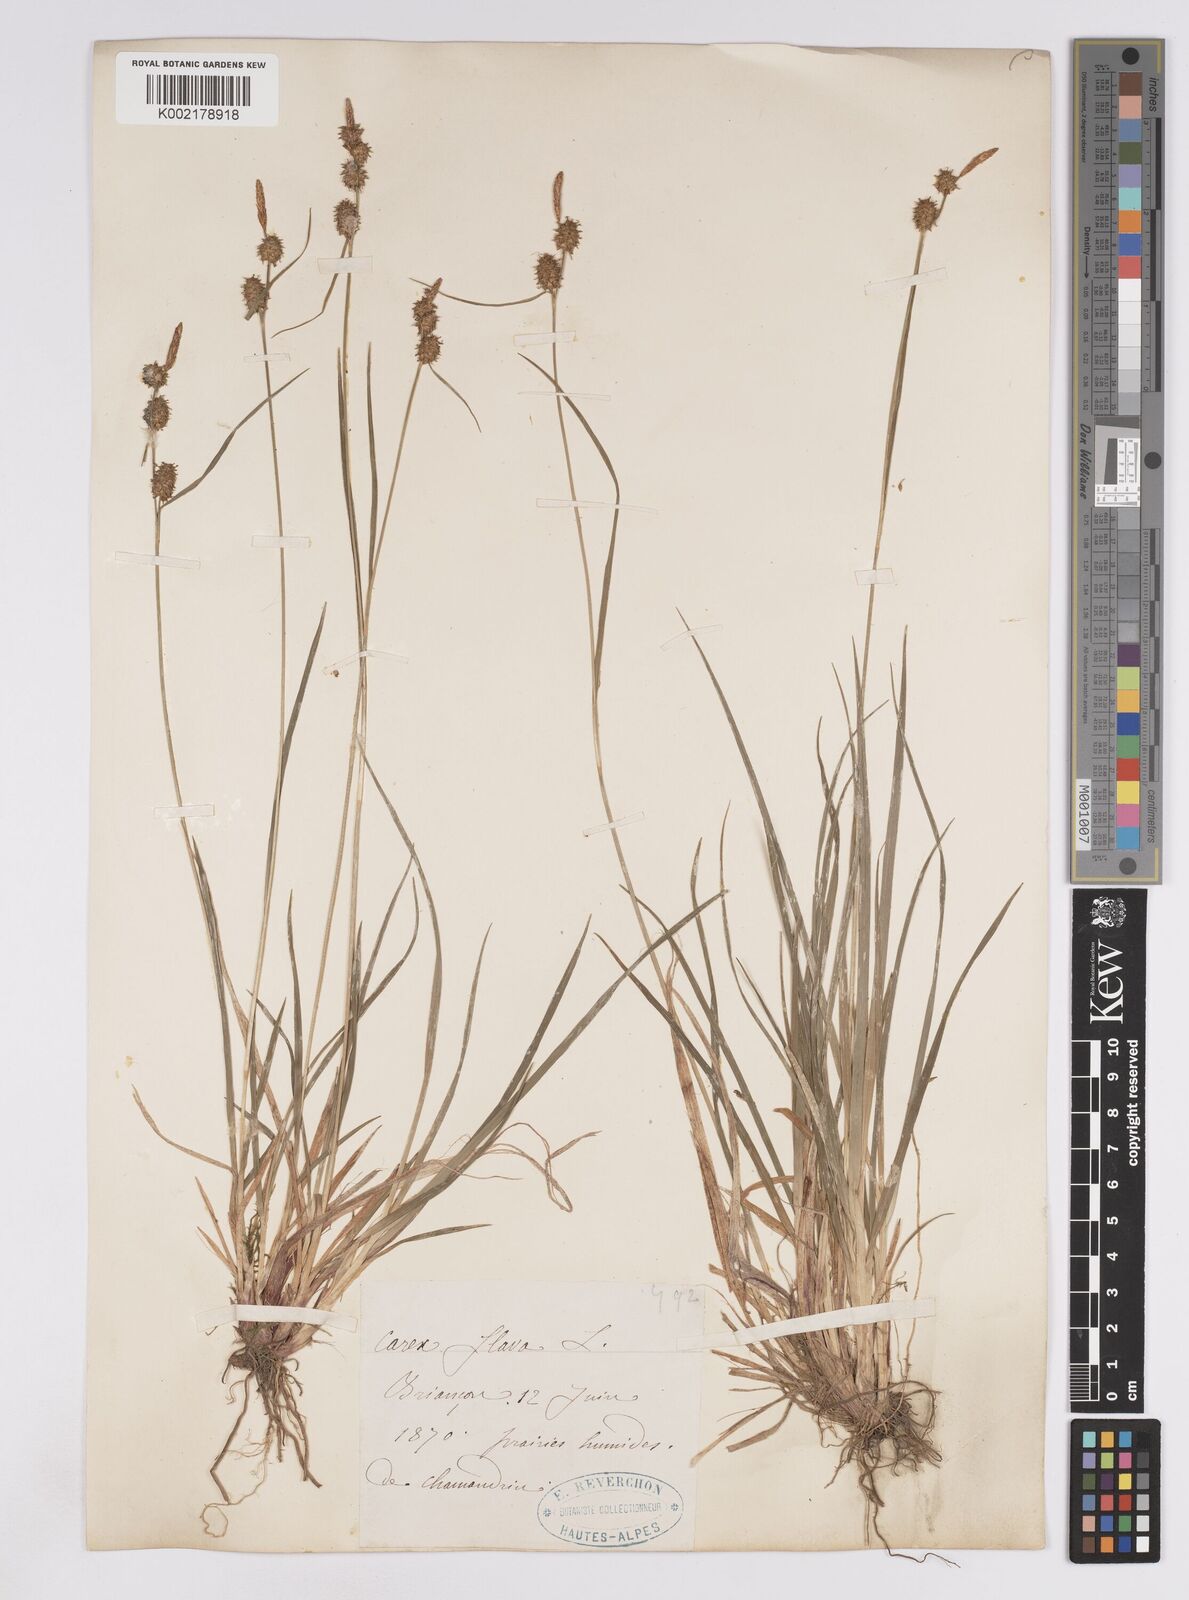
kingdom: Plantae
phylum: Tracheophyta
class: Liliopsida
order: Poales
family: Cyperaceae
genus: Carex
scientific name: Carex lepidocarpa
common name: Long-stalked yellow-sedge
